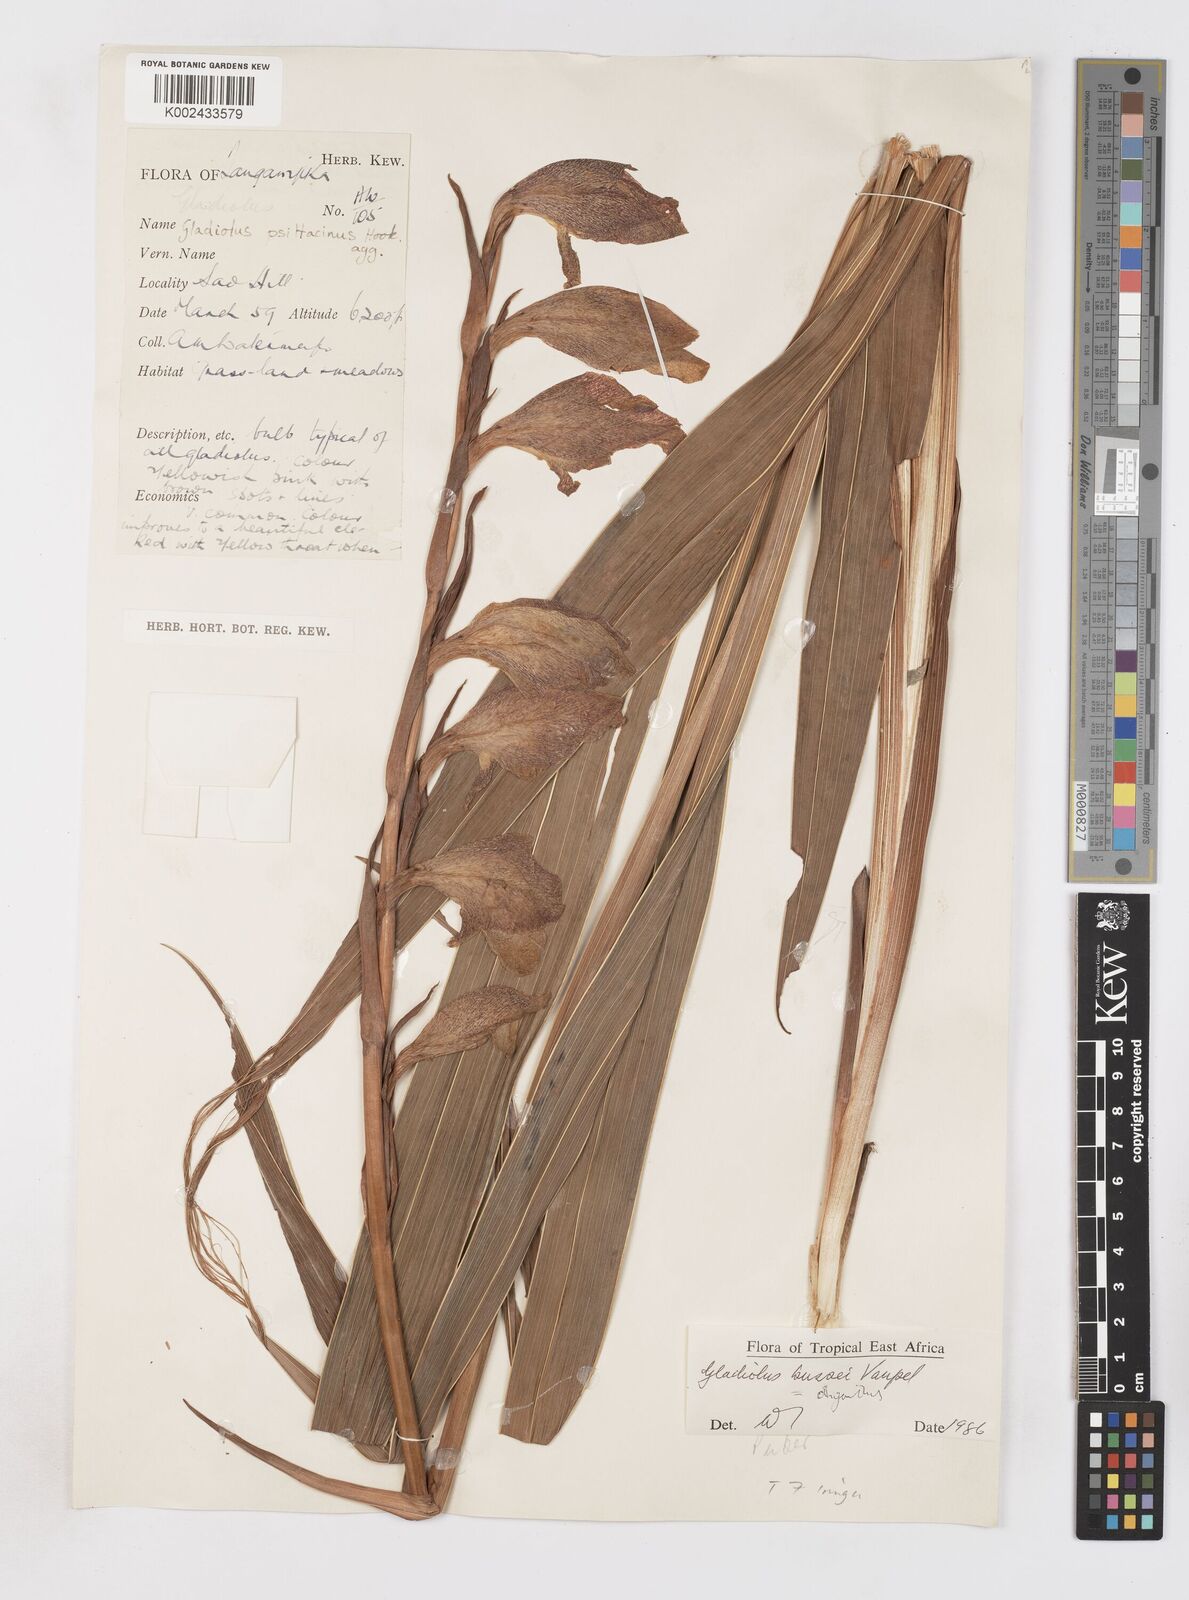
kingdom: Plantae
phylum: Tracheophyta
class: Liliopsida
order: Asparagales
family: Iridaceae
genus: Gladiolus
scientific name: Gladiolus oliganthus
